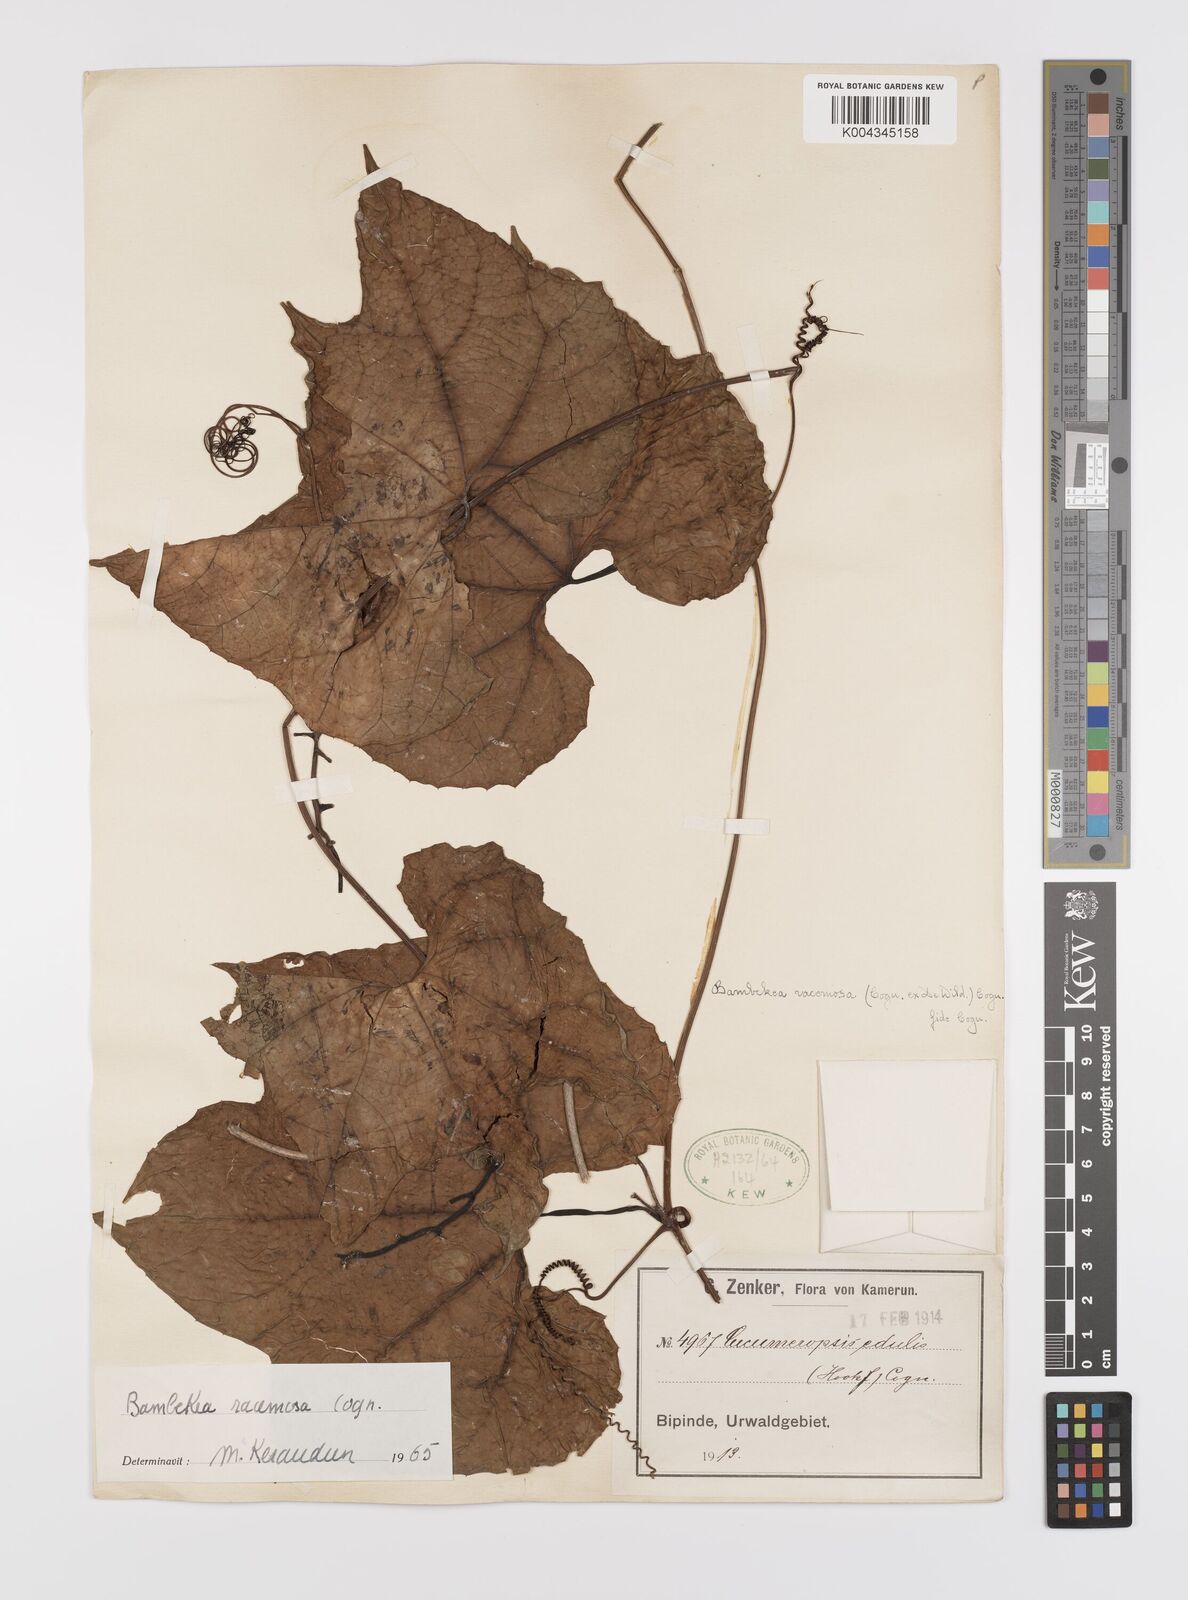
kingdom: Plantae
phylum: Tracheophyta
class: Magnoliopsida
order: Cucurbitales
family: Cucurbitaceae
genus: Bambekea
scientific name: Bambekea racemosa
